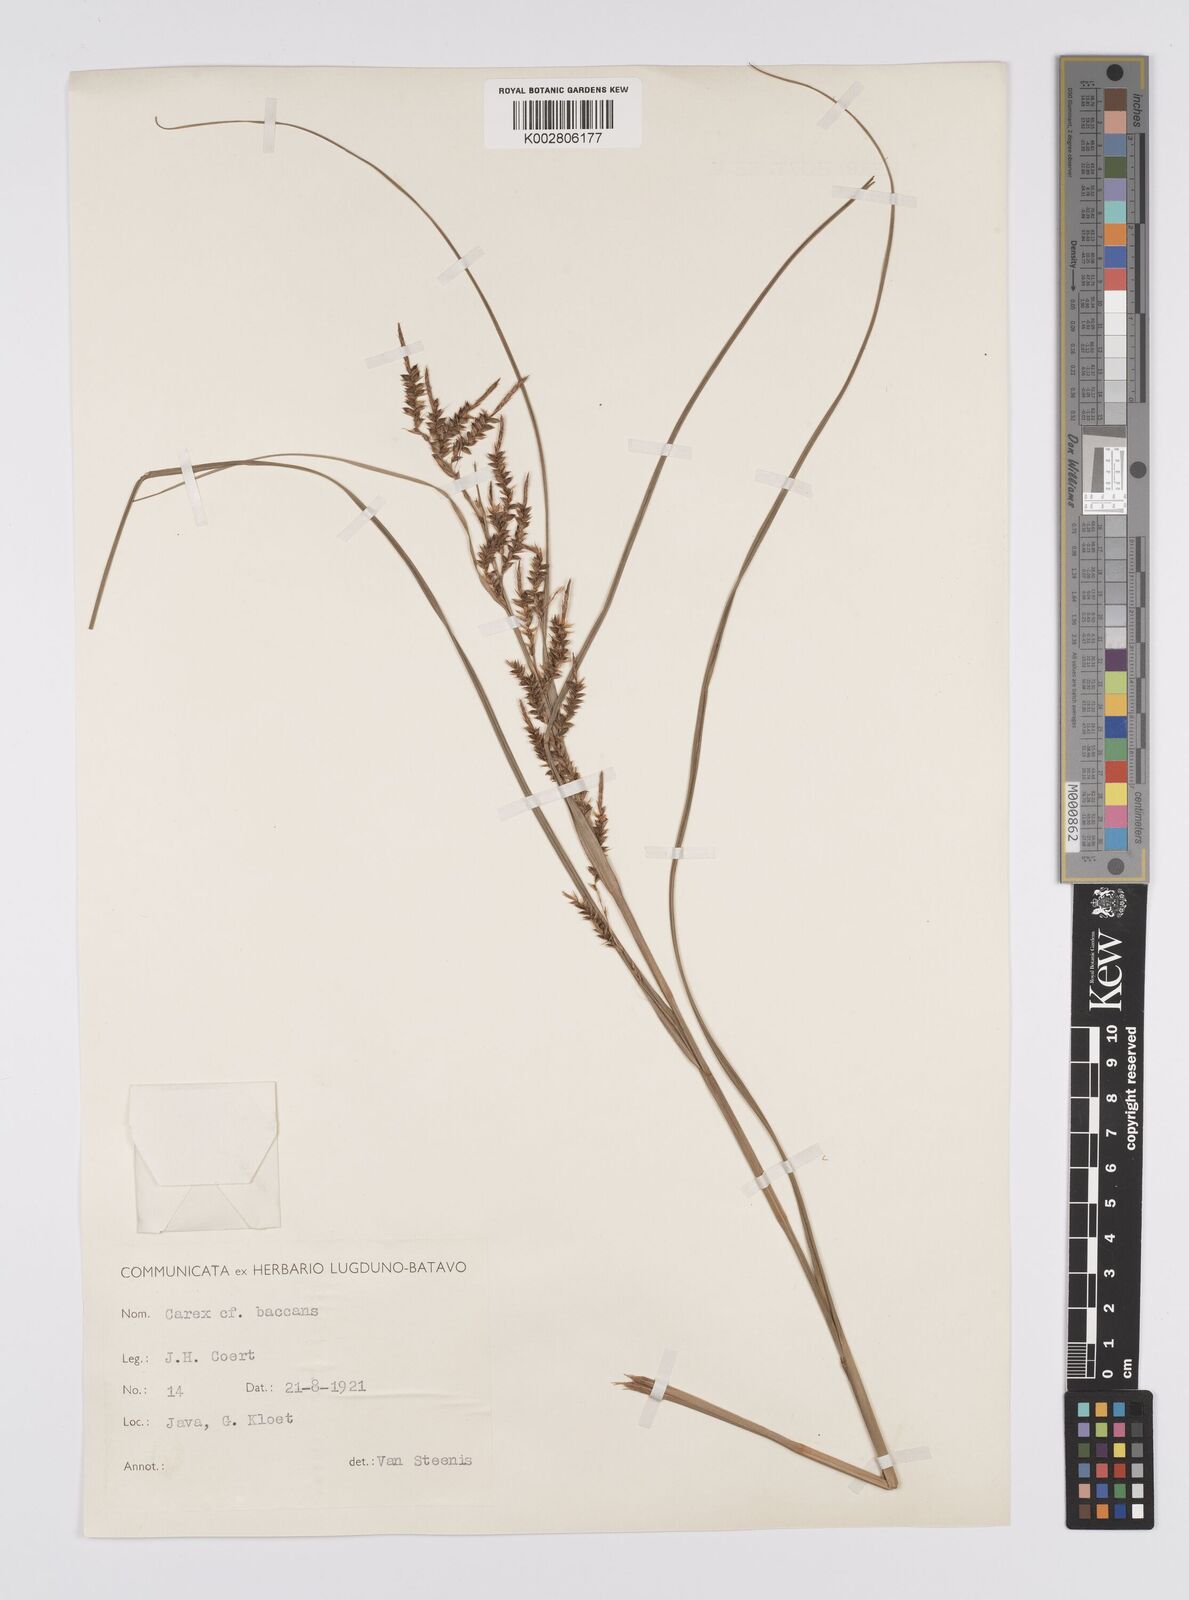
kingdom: Plantae
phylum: Tracheophyta
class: Liliopsida
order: Poales
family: Cyperaceae
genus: Carex
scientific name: Carex baccans
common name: Crimson seeded sedge
